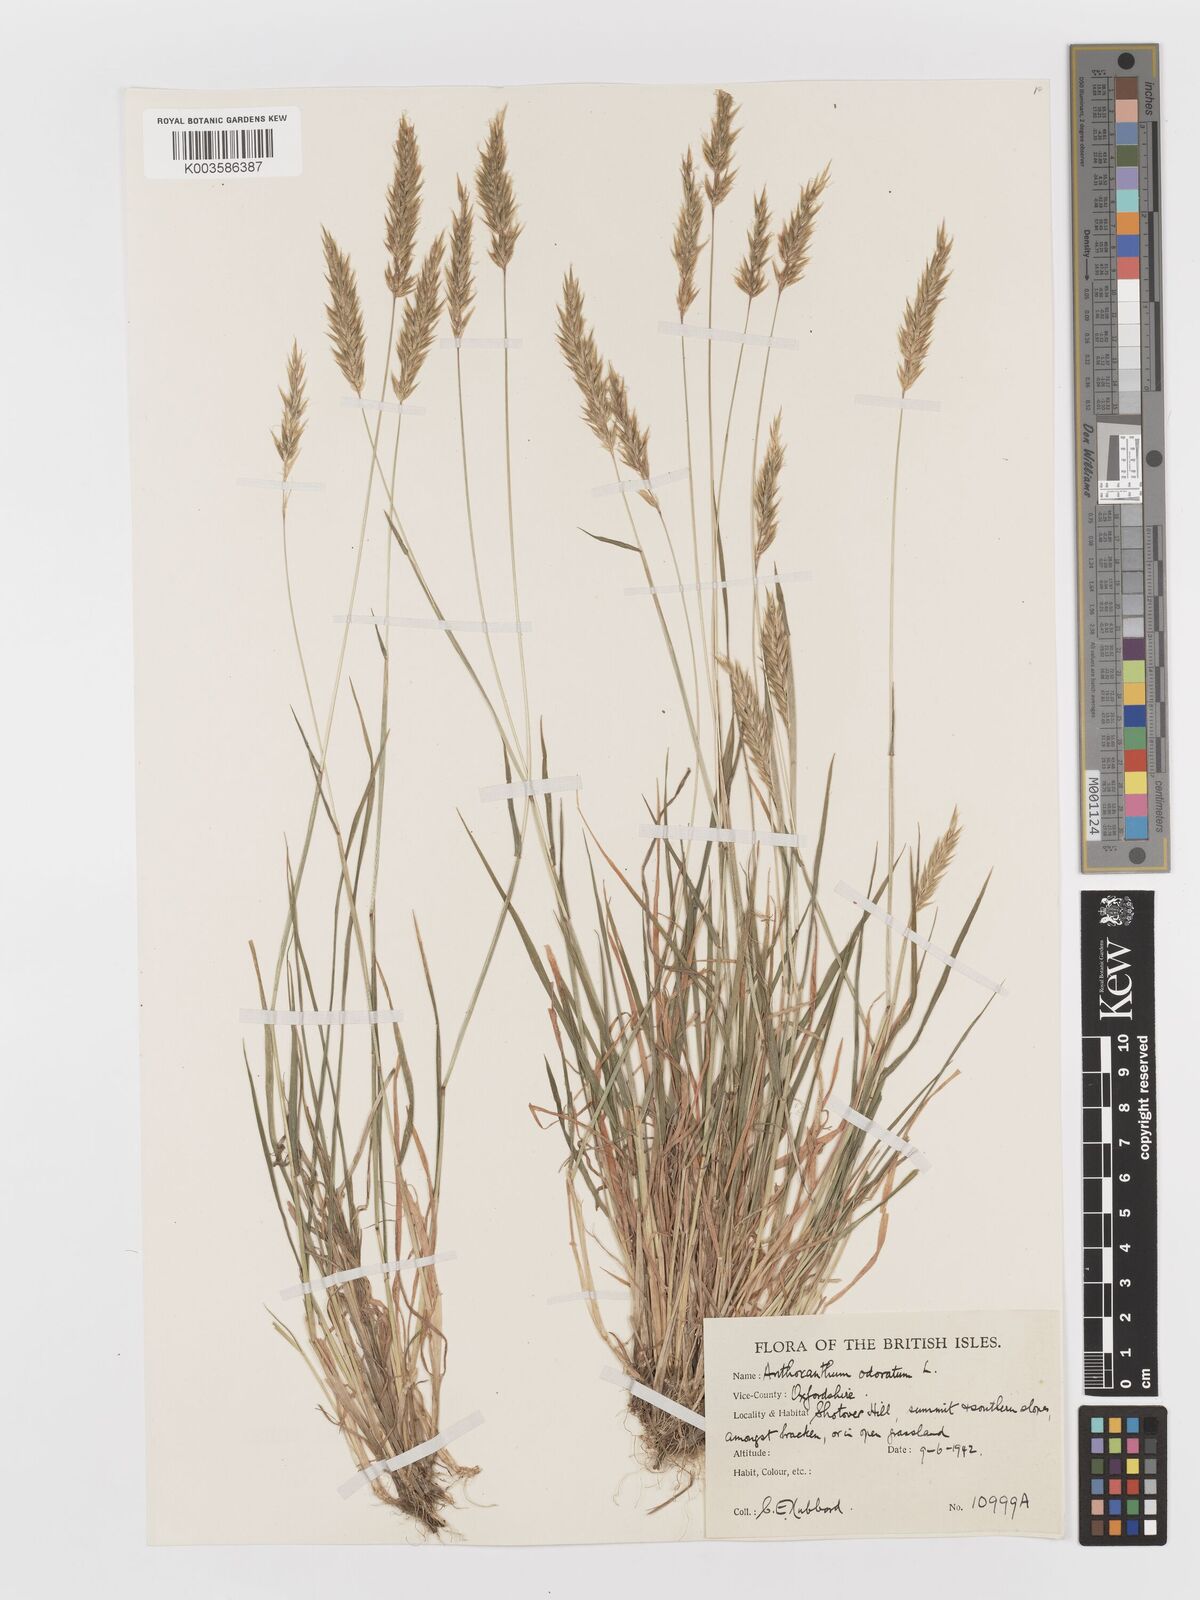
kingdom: Plantae
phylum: Tracheophyta
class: Liliopsida
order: Poales
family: Poaceae
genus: Anthoxanthum
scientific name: Anthoxanthum odoratum
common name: Sweet vernalgrass
